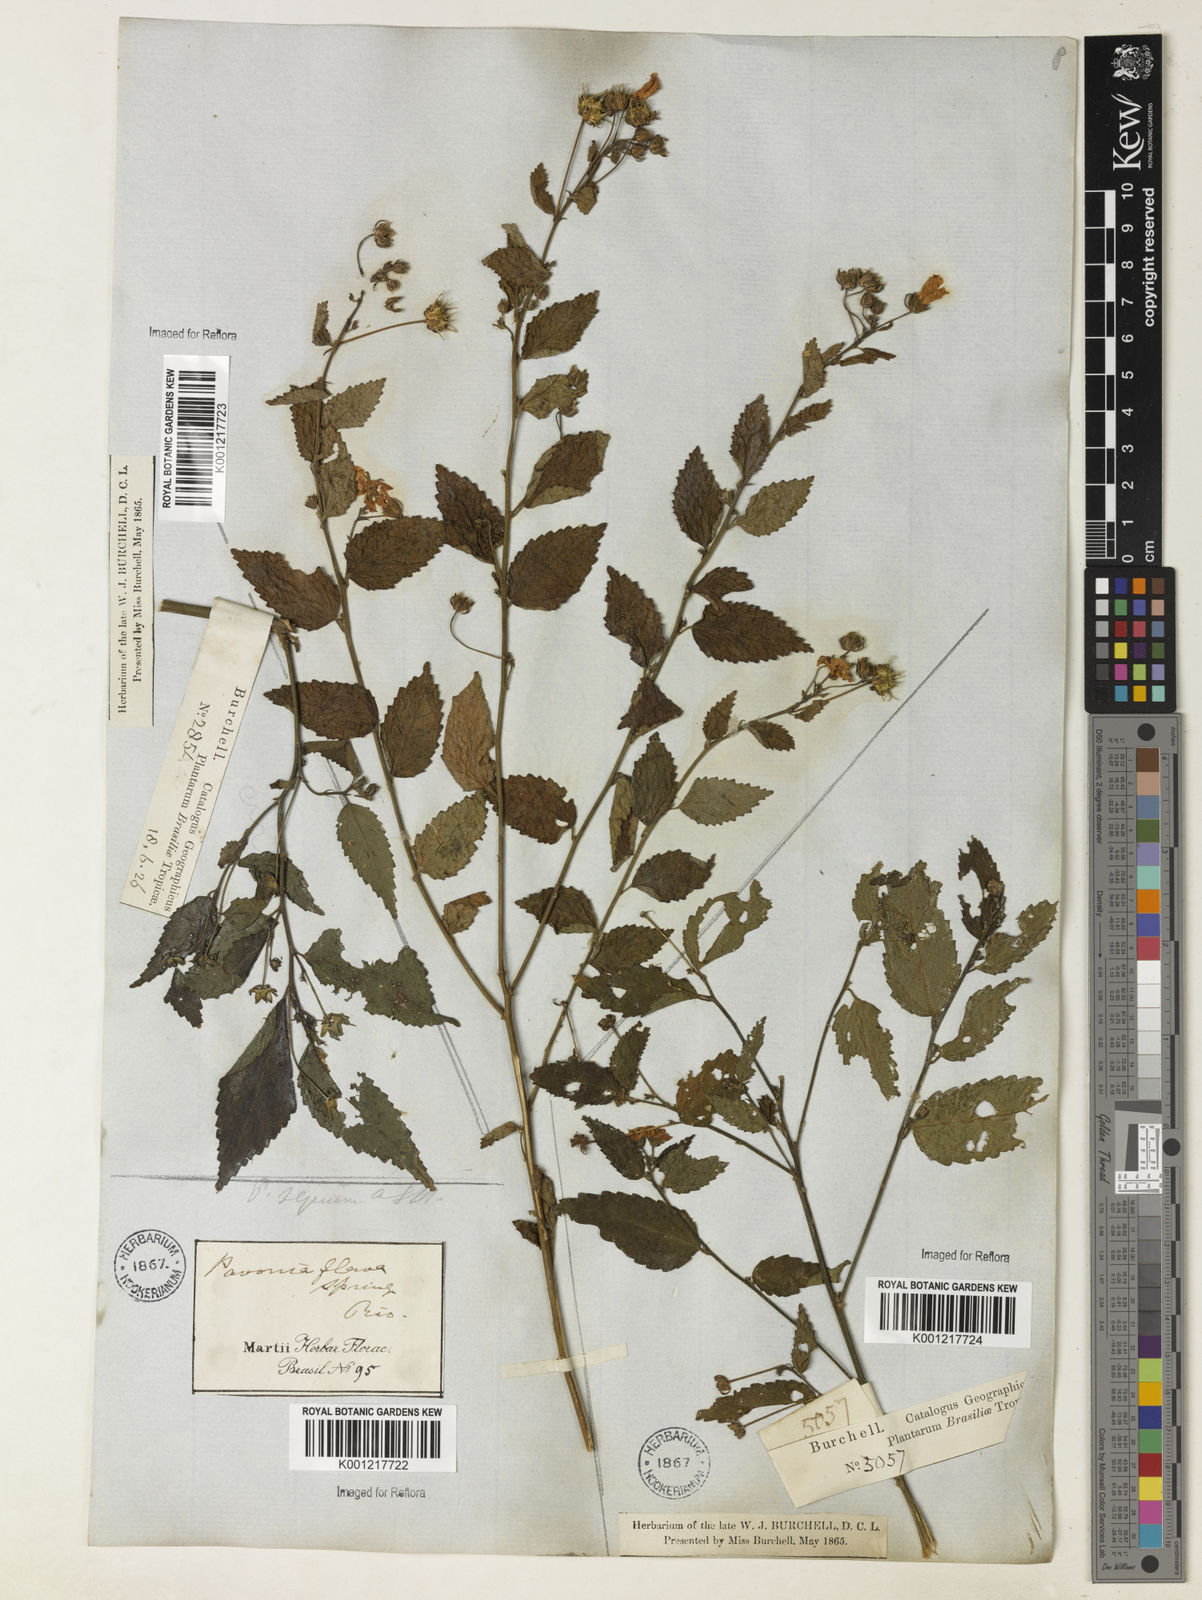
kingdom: Plantae
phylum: Tracheophyta
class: Magnoliopsida
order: Malvales
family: Malvaceae
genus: Pavonia
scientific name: Pavonia sepium
